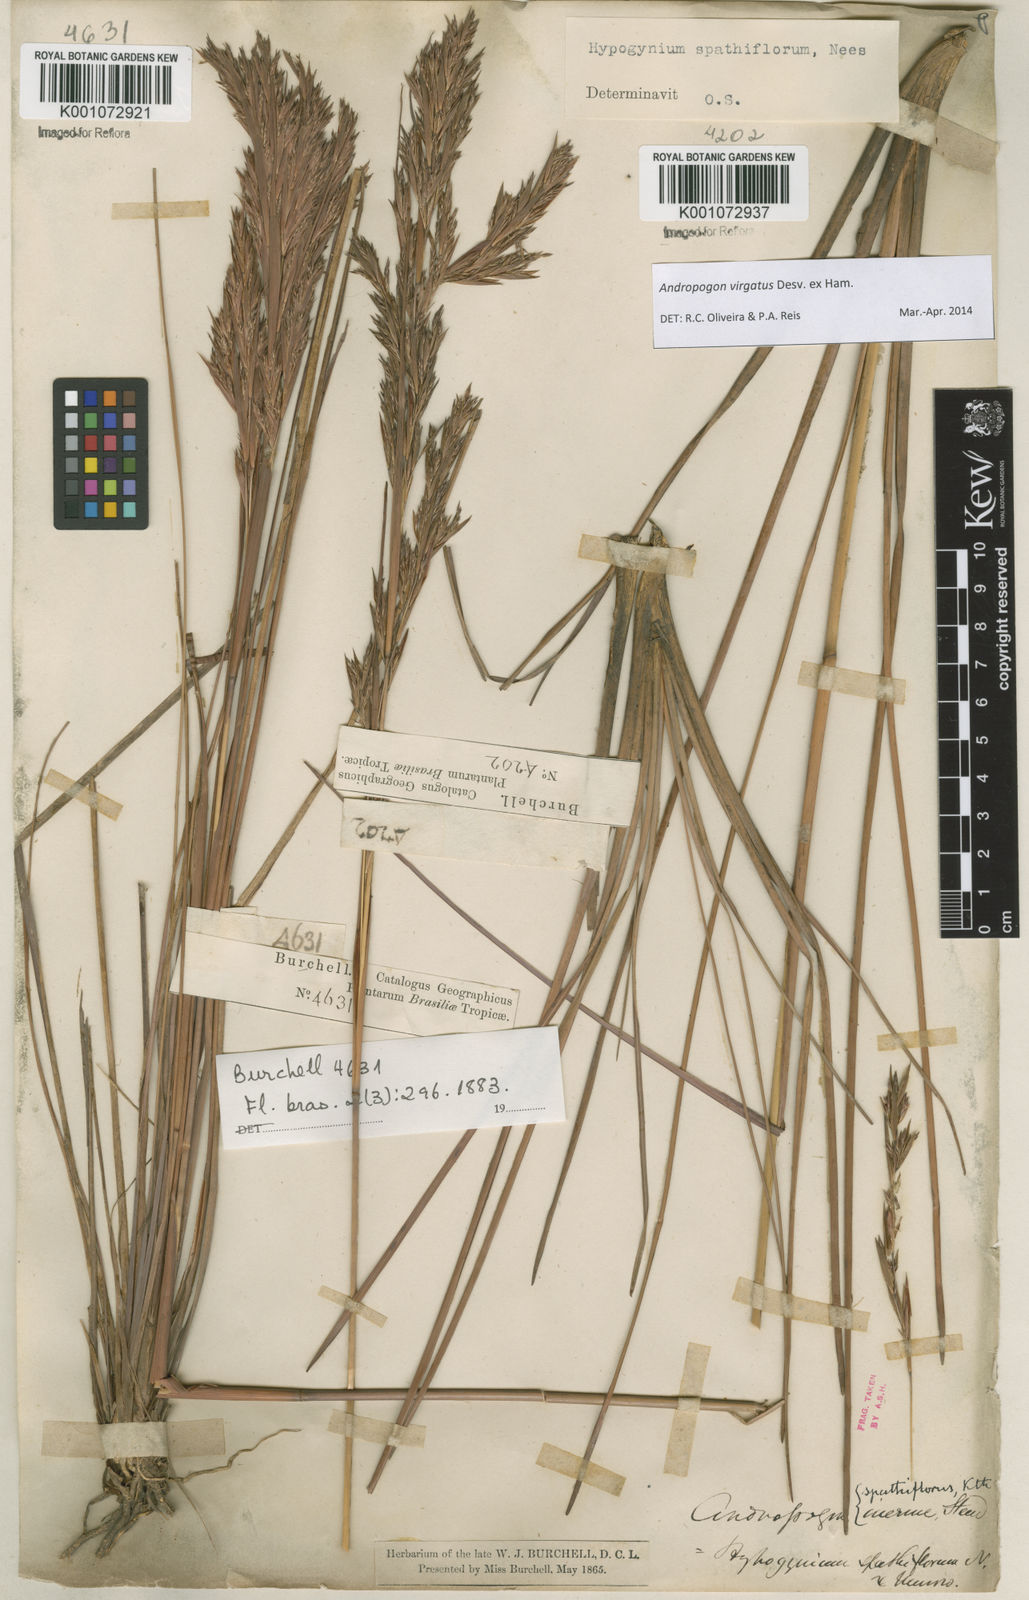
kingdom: Plantae
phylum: Tracheophyta
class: Liliopsida
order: Poales
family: Poaceae
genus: Andropogon
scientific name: Andropogon virgatus
